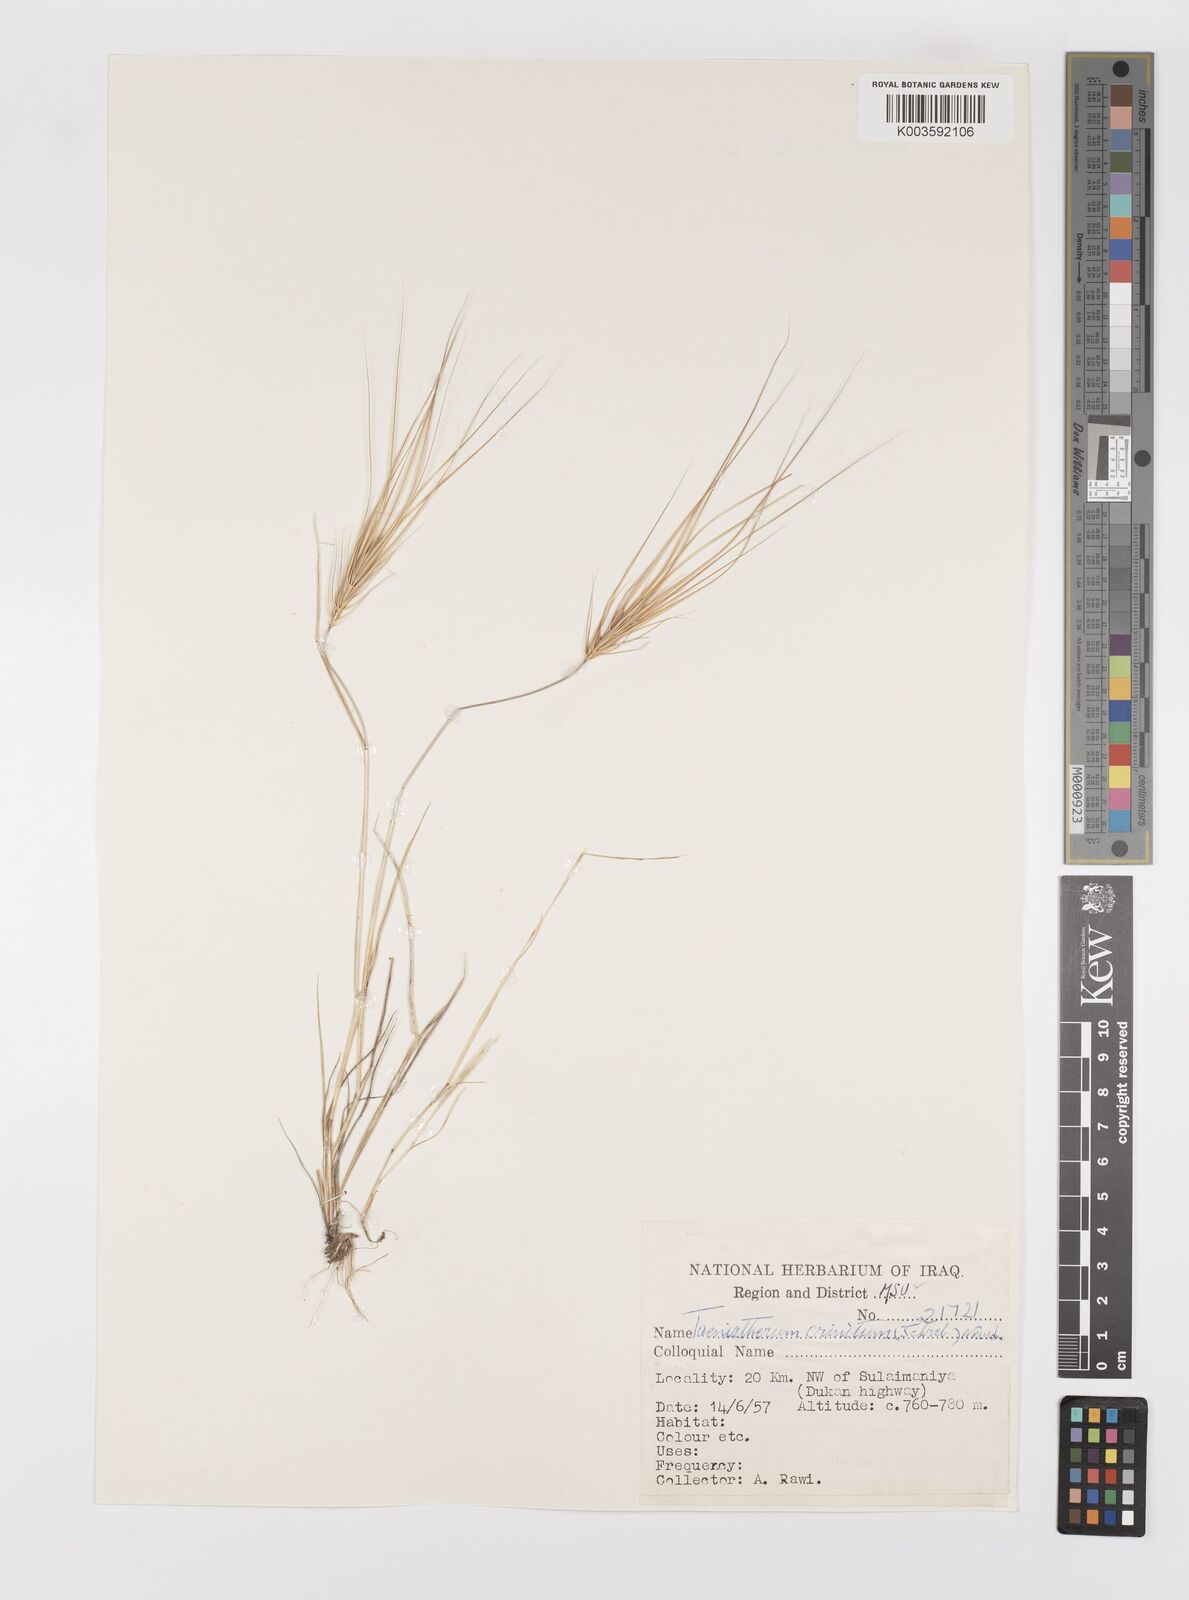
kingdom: Plantae
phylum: Tracheophyta
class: Liliopsida
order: Poales
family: Poaceae
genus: Taeniatherum
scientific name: Taeniatherum caput-medusae
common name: Medusahead
